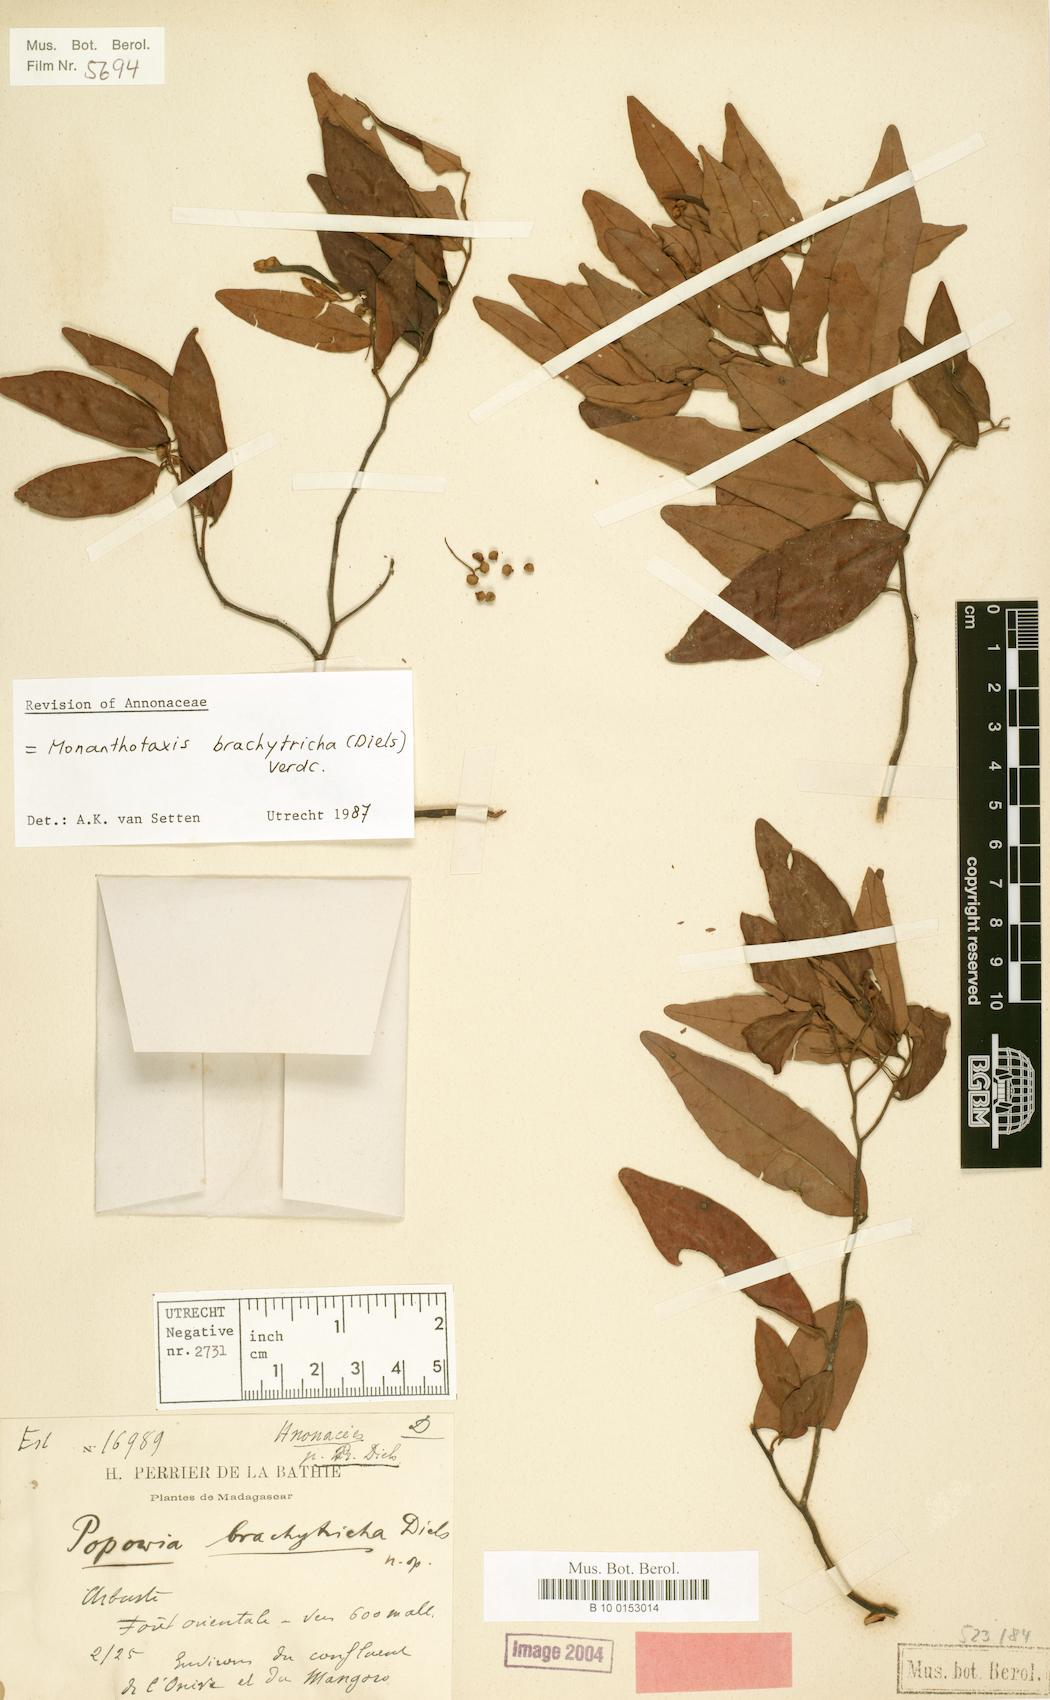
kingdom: Plantae
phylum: Tracheophyta
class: Magnoliopsida
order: Magnoliales
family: Annonaceae
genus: Monanthotaxis
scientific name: Monanthotaxis brachytricha
